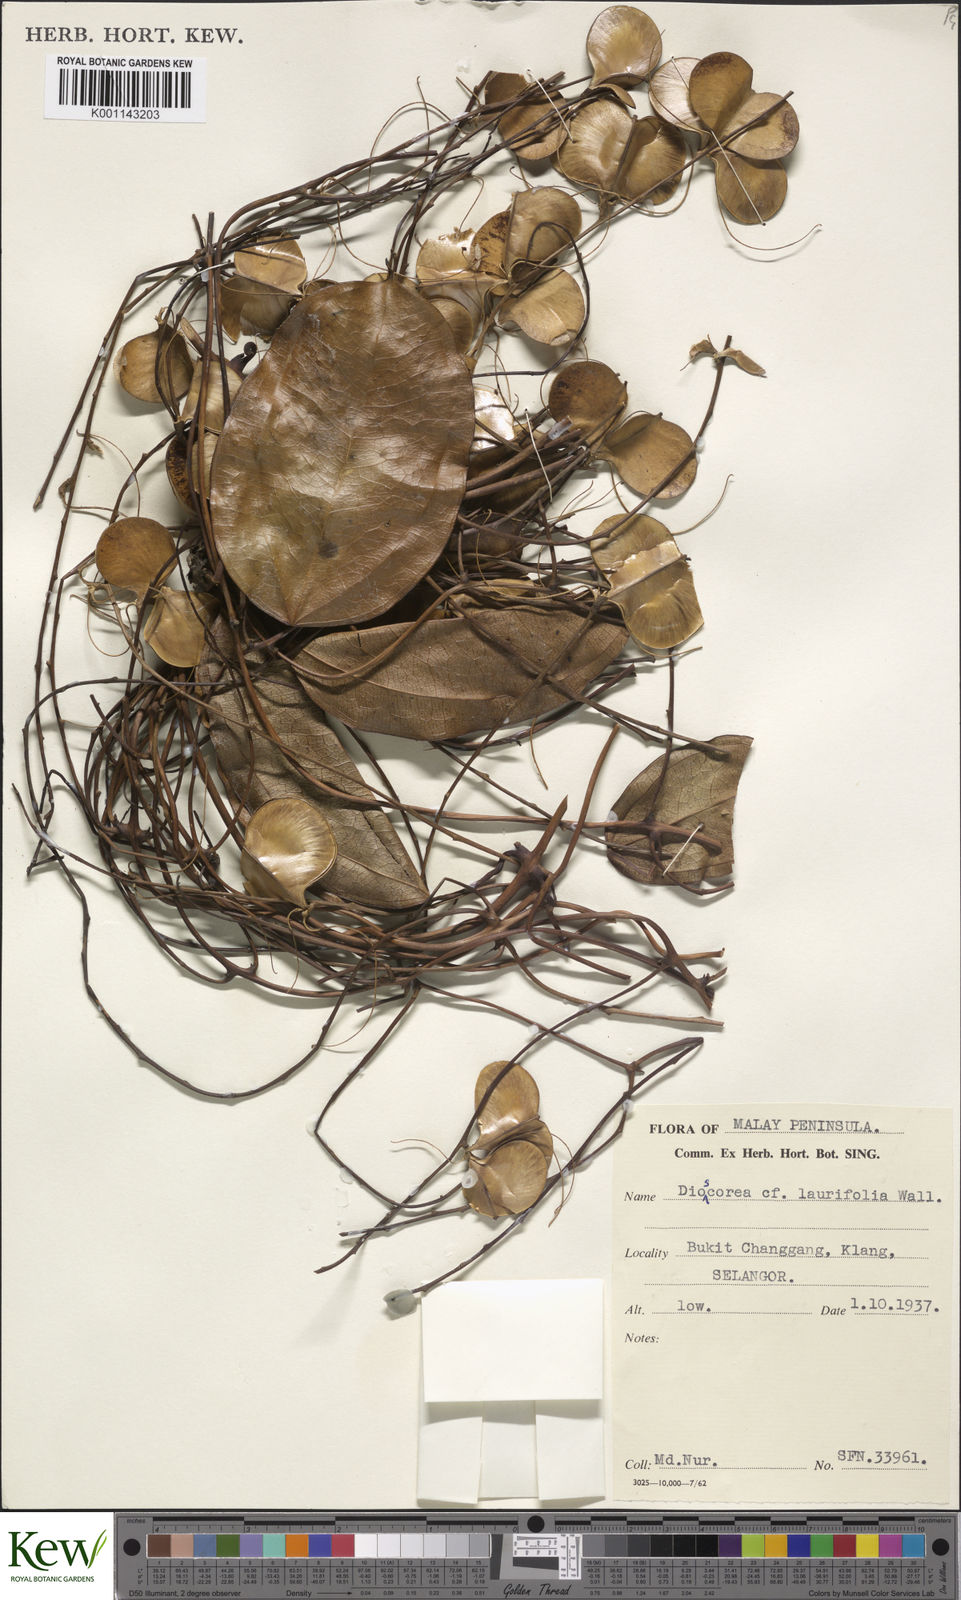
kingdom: Plantae
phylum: Tracheophyta
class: Liliopsida
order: Dioscoreales
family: Dioscoreaceae
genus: Dioscorea
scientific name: Dioscorea laurifolia
